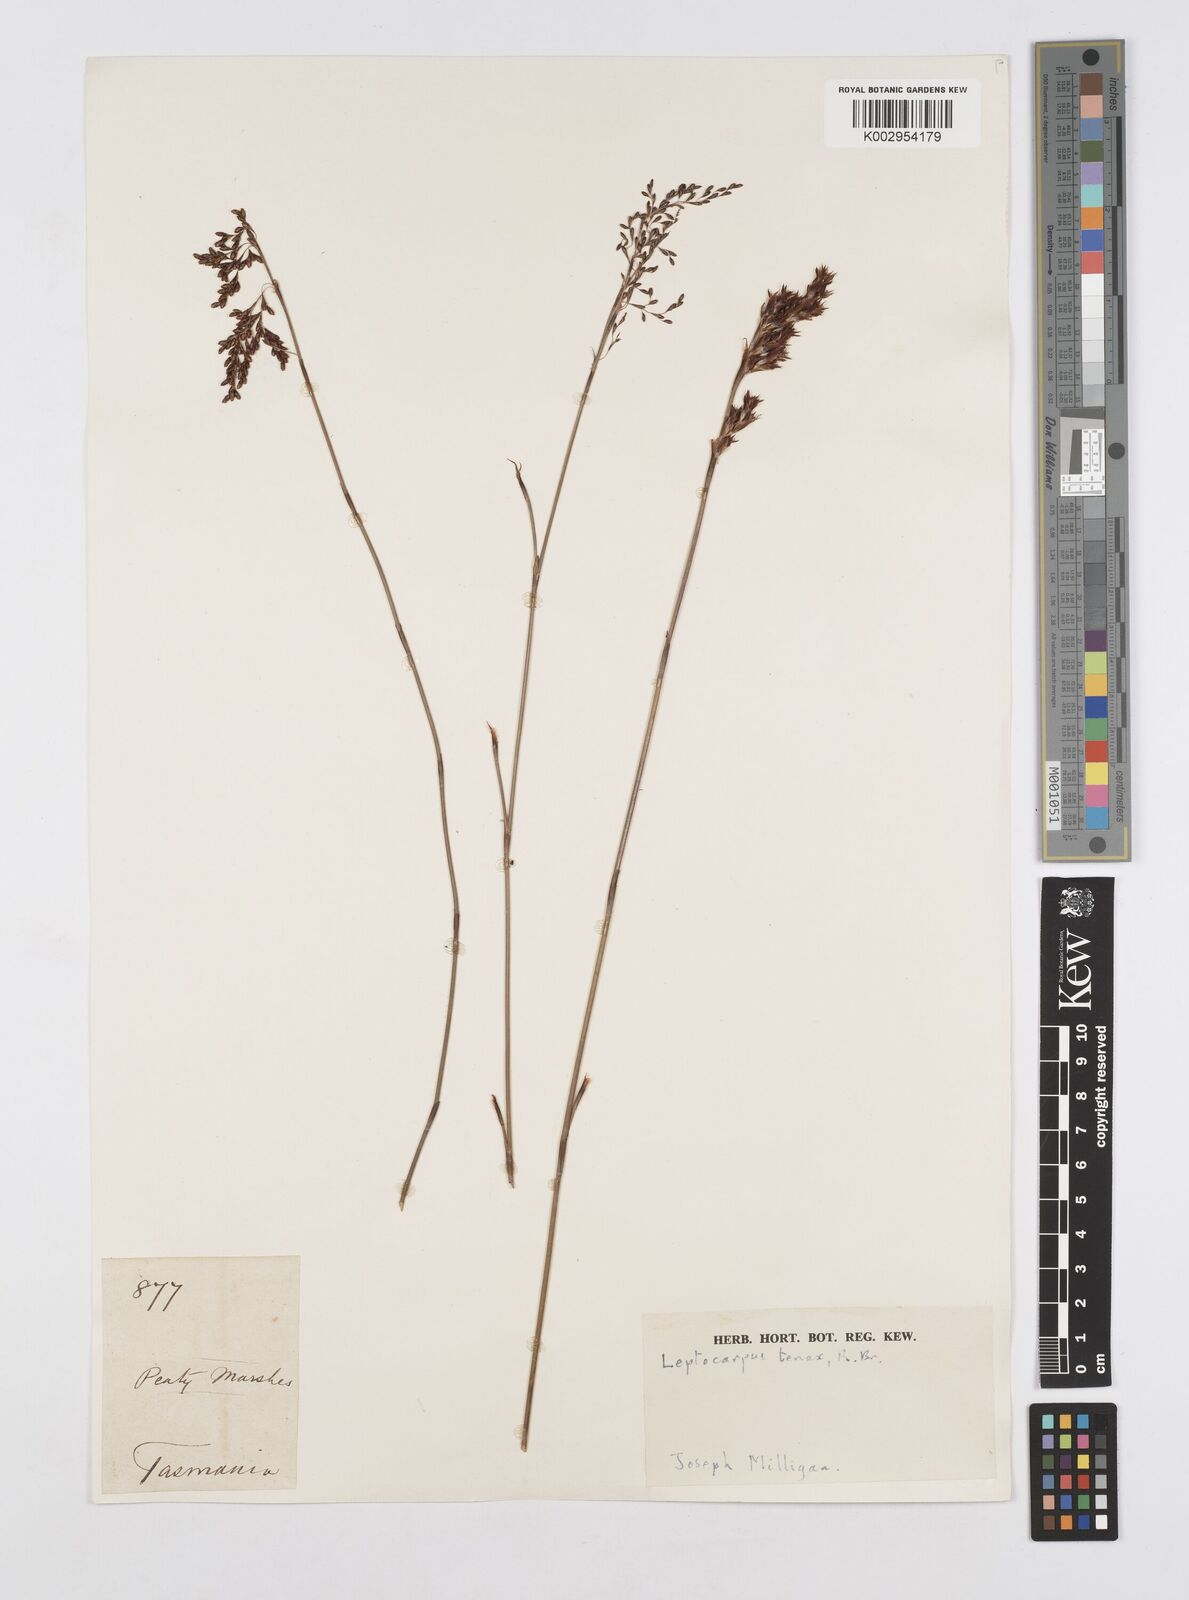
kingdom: Plantae
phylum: Tracheophyta
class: Liliopsida
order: Poales
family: Restionaceae
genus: Leptocarpus
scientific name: Leptocarpus tenax
